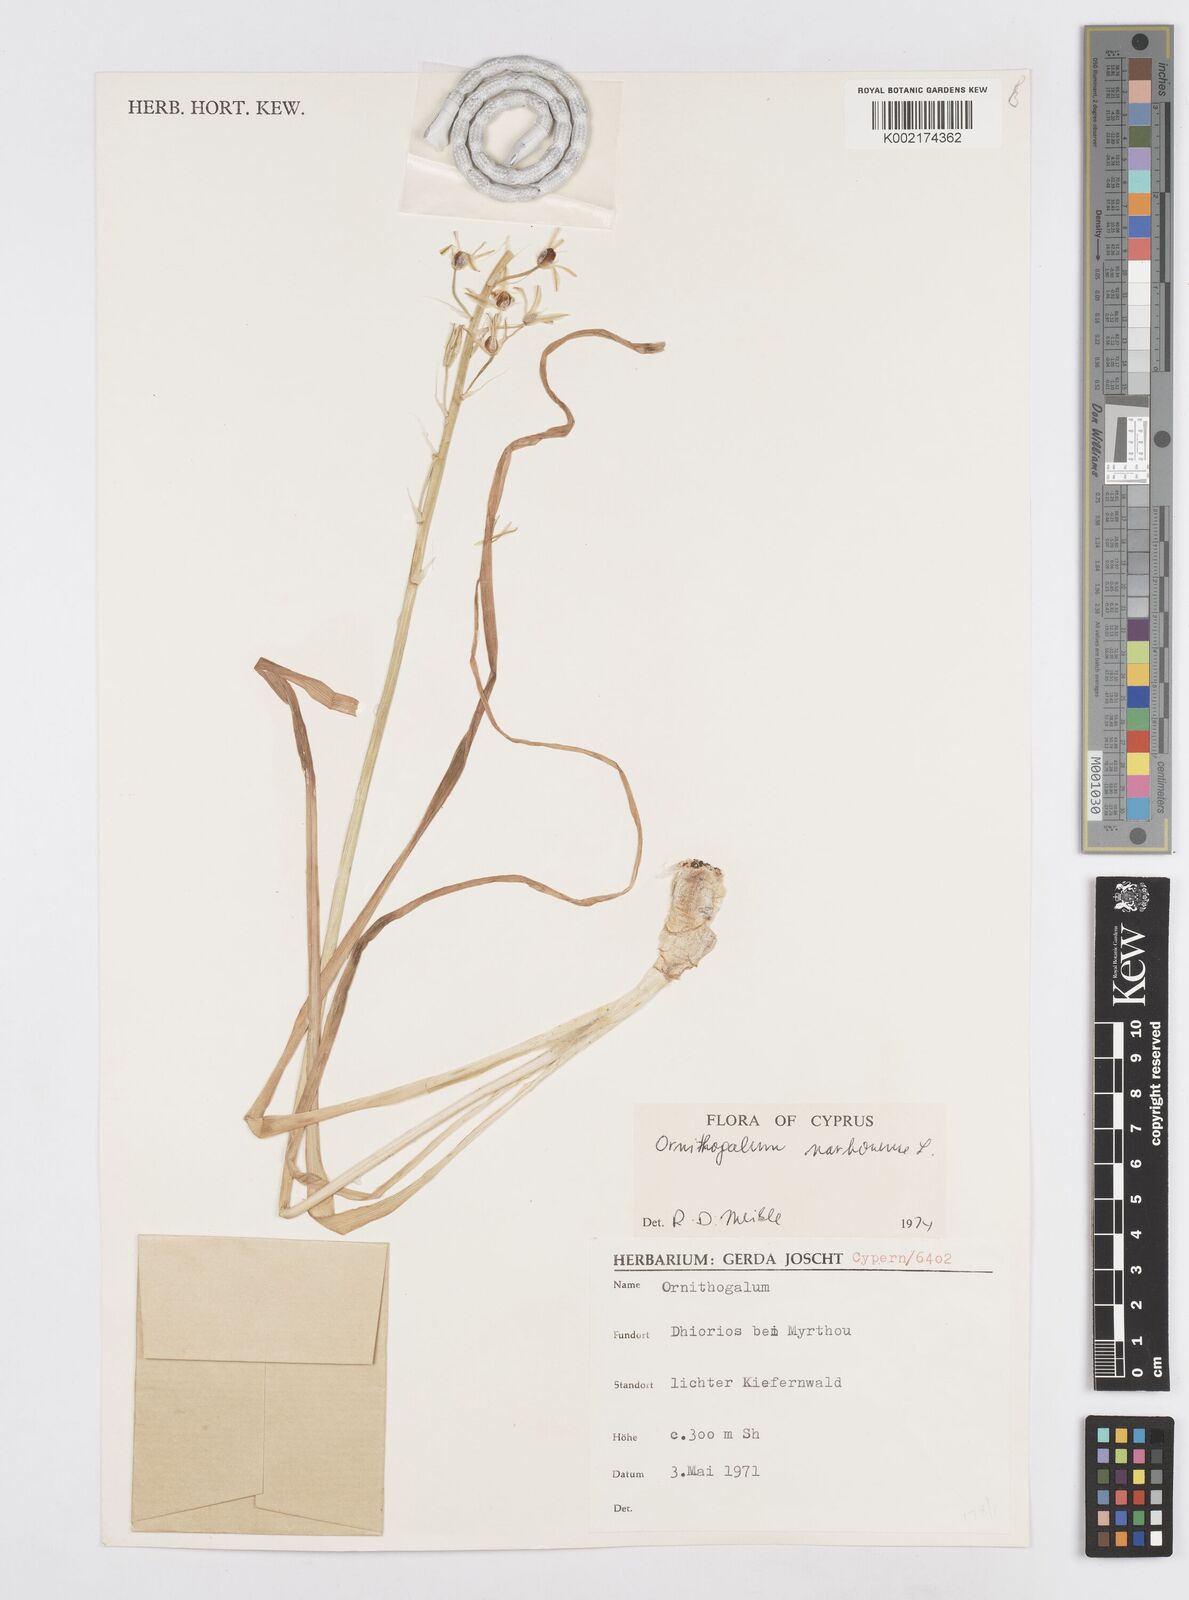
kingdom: Plantae
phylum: Tracheophyta
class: Liliopsida
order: Asparagales
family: Asparagaceae
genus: Ornithogalum
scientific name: Ornithogalum narbonense
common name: Bath-asparagus
